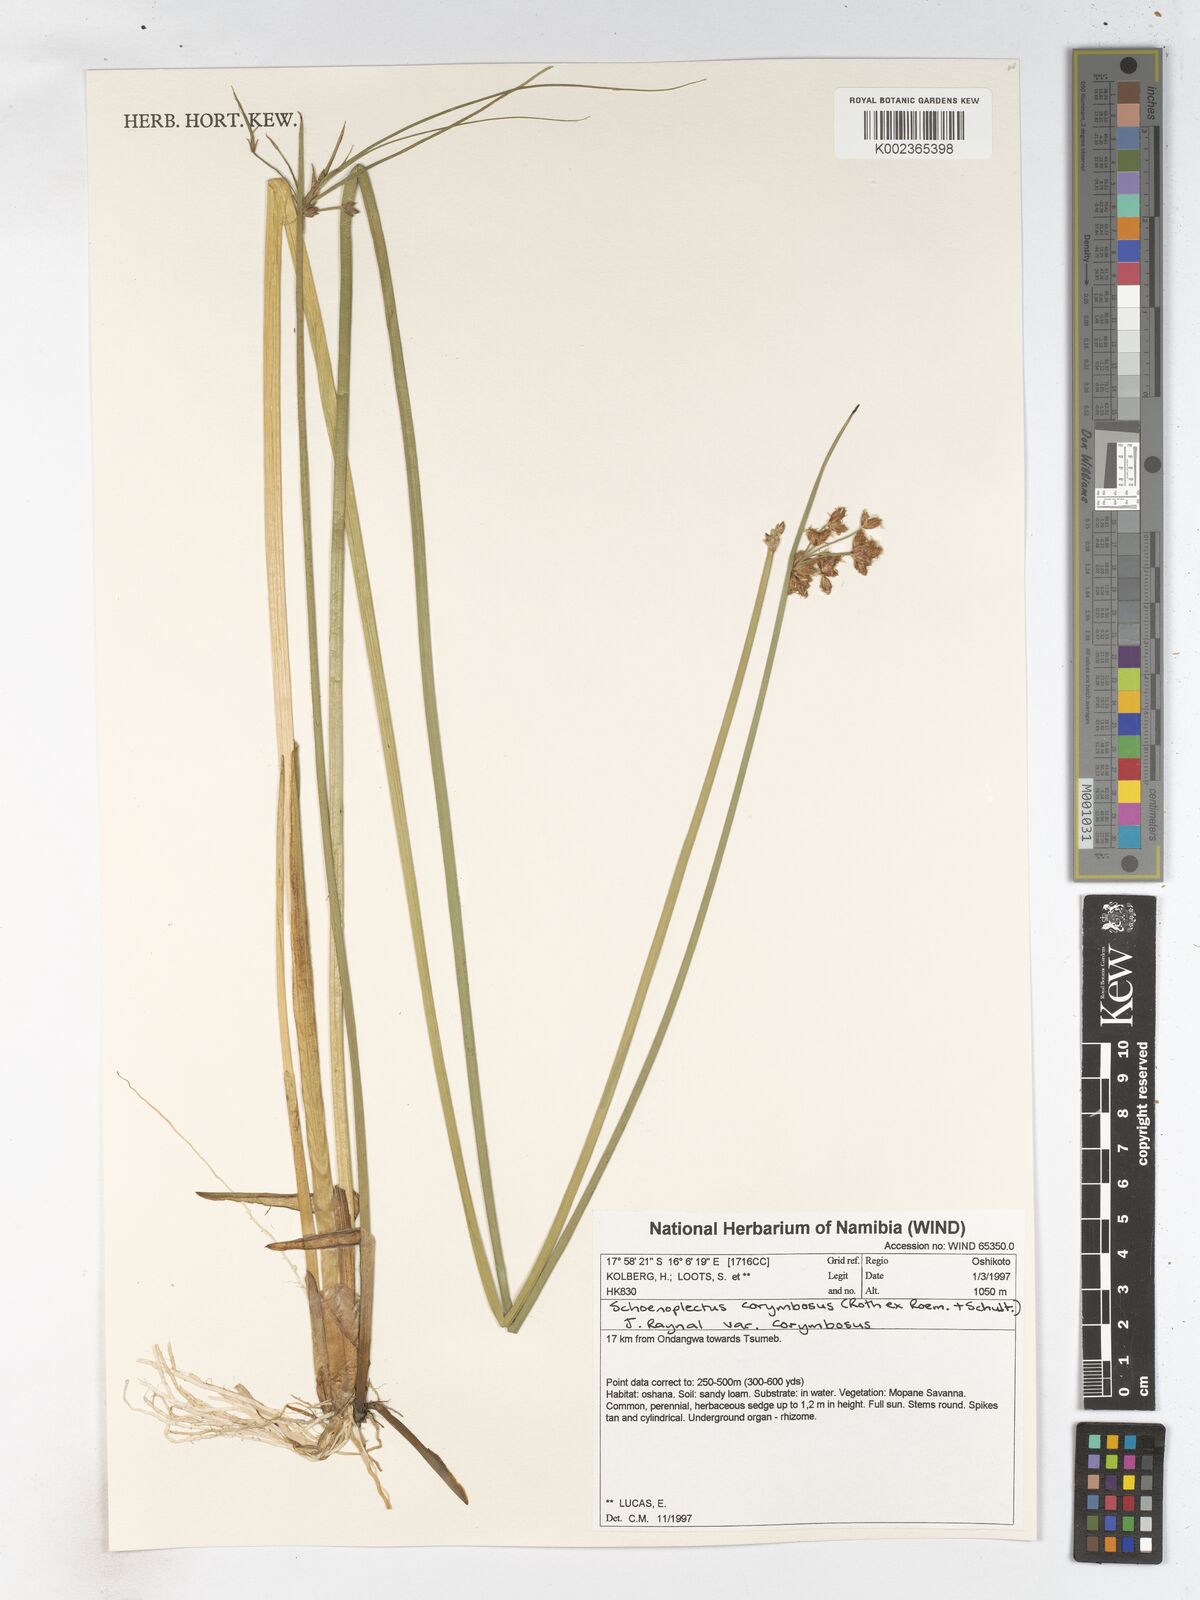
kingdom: Plantae
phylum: Tracheophyta
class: Liliopsida
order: Poales
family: Cyperaceae
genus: Schoenoplectiella
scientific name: Schoenoplectiella brachyceras
